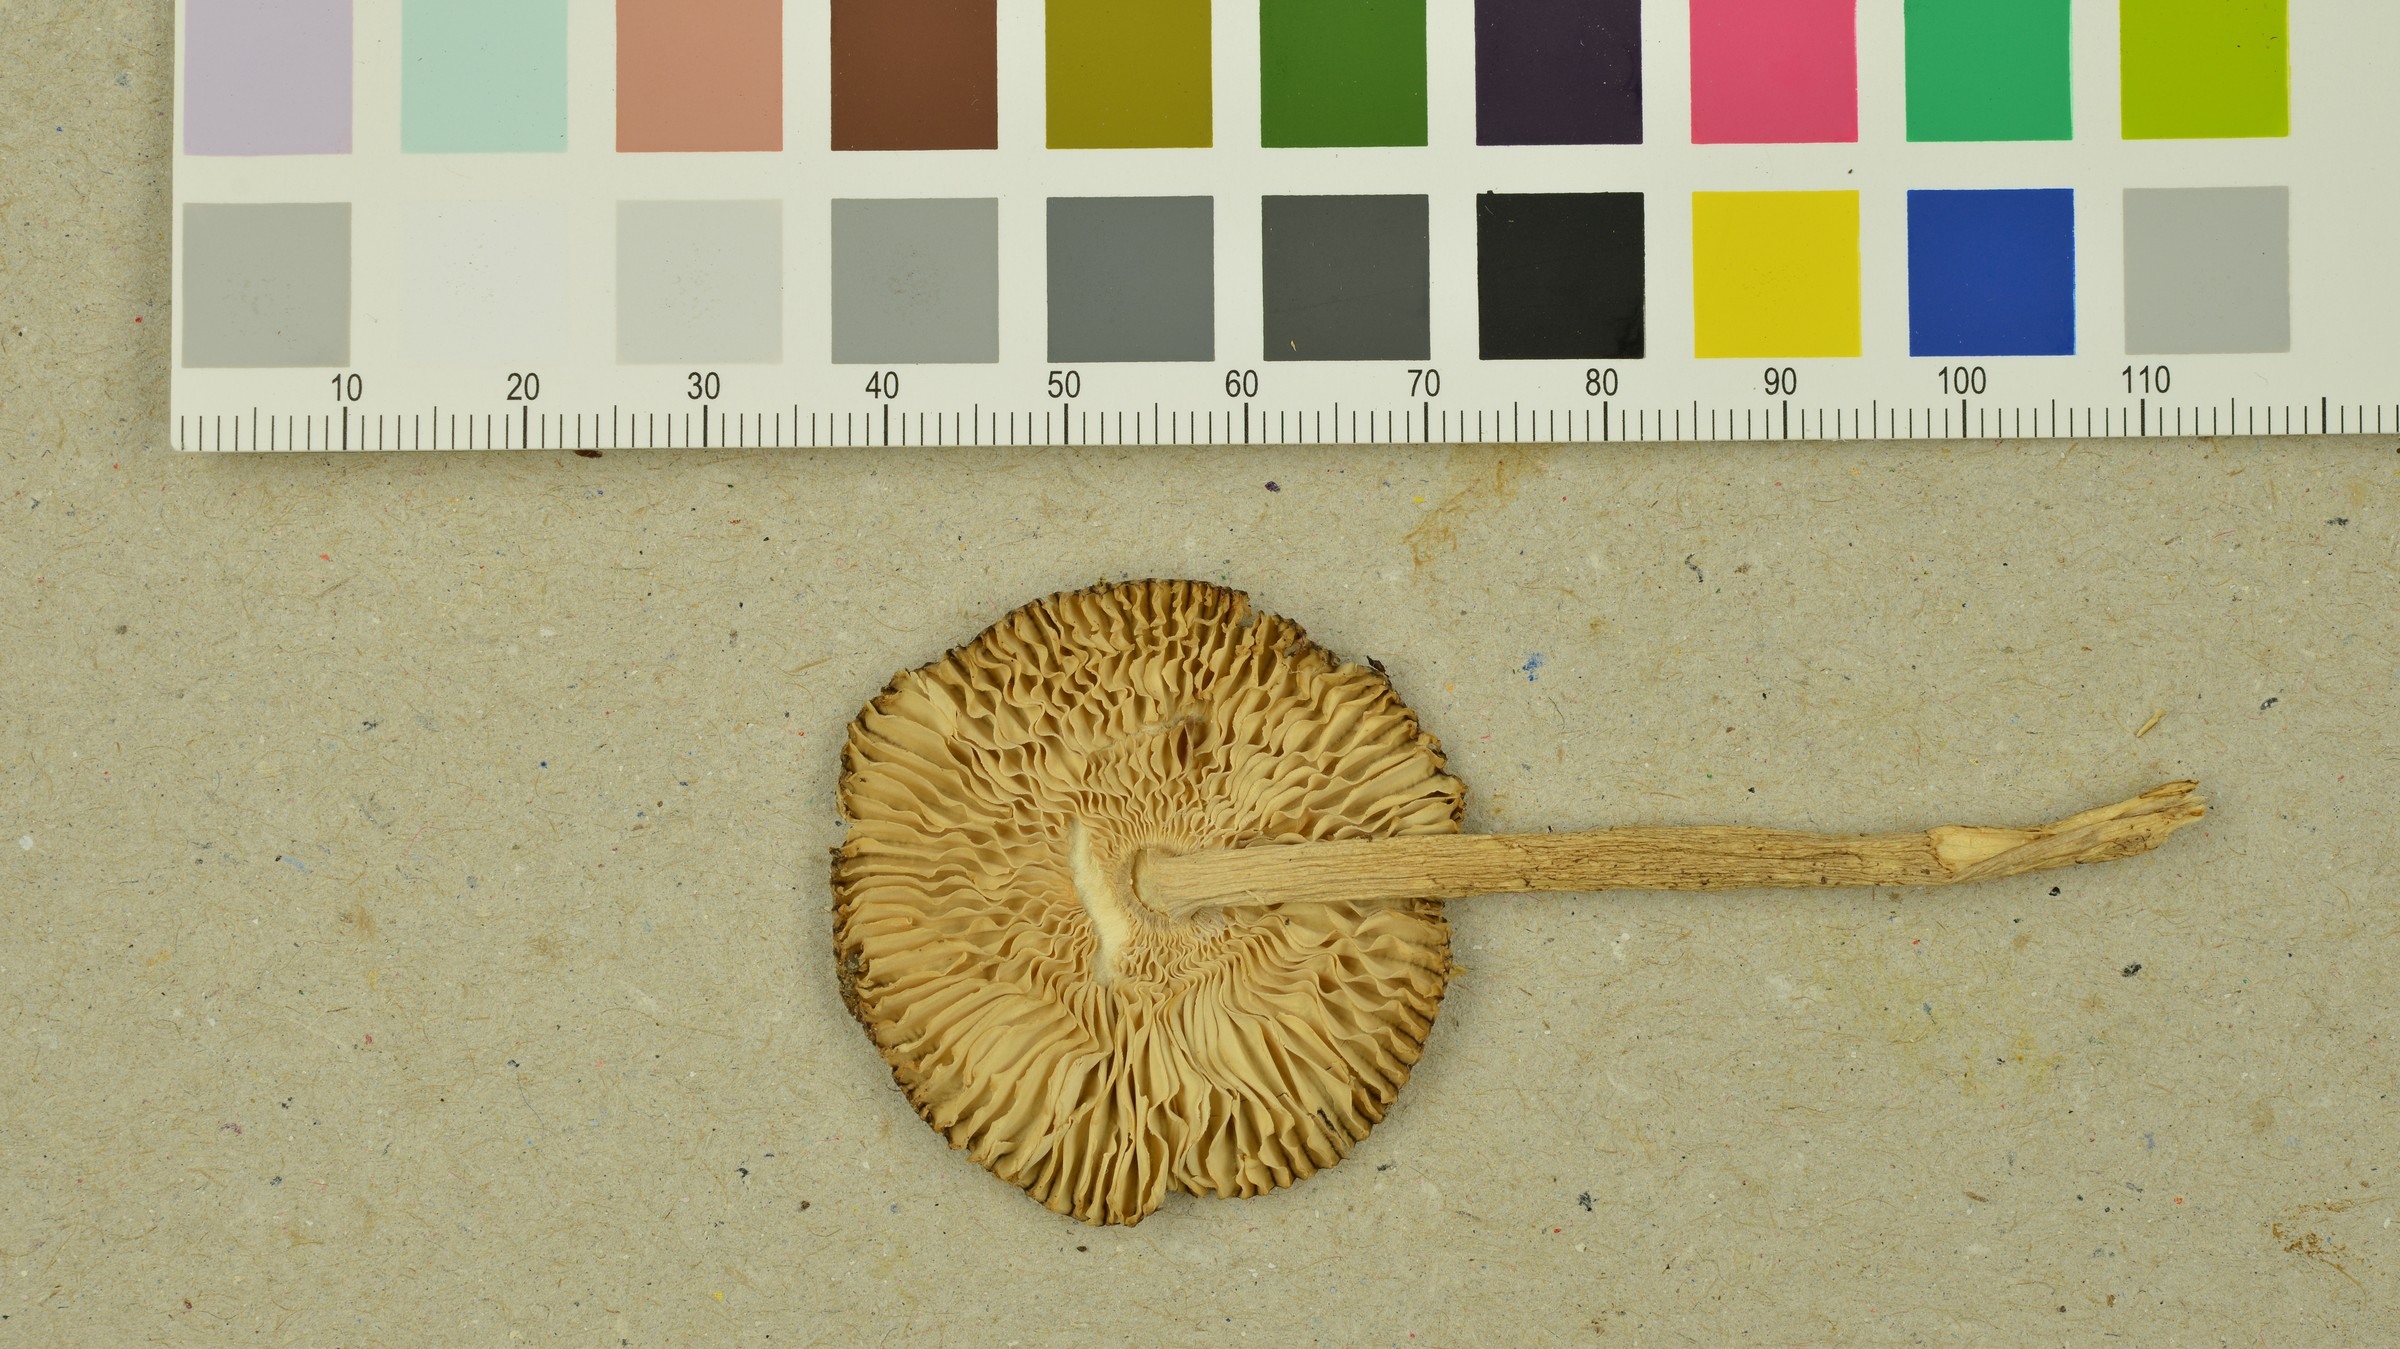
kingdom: Fungi
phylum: Basidiomycota
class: Agaricomycetes
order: Agaricales
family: Amanitaceae
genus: Amanita
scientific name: Amanita olivaceogrisea
